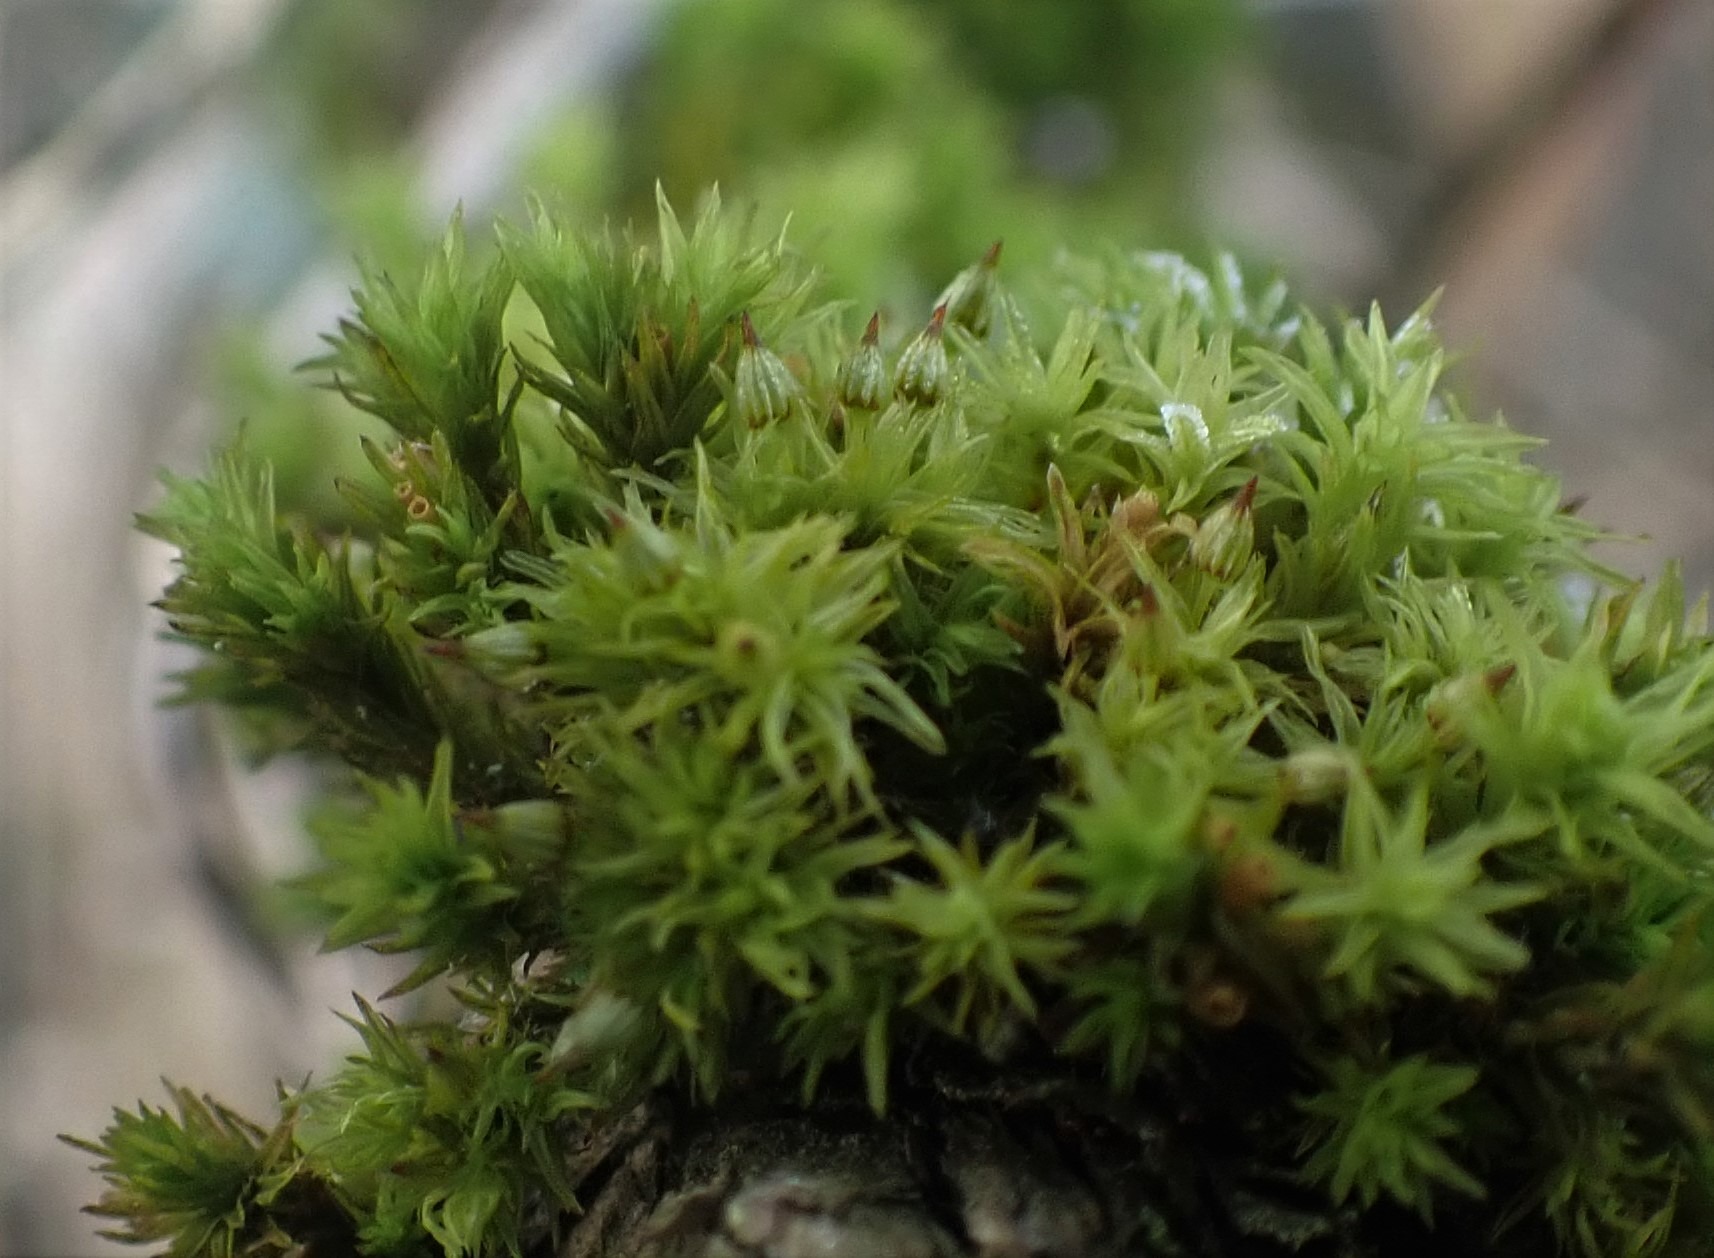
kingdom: Plantae
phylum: Bryophyta
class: Bryopsida
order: Orthotrichales
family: Orthotrichaceae
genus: Orthotrichum
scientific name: Orthotrichum pulchellum
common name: Smuk furehætte
